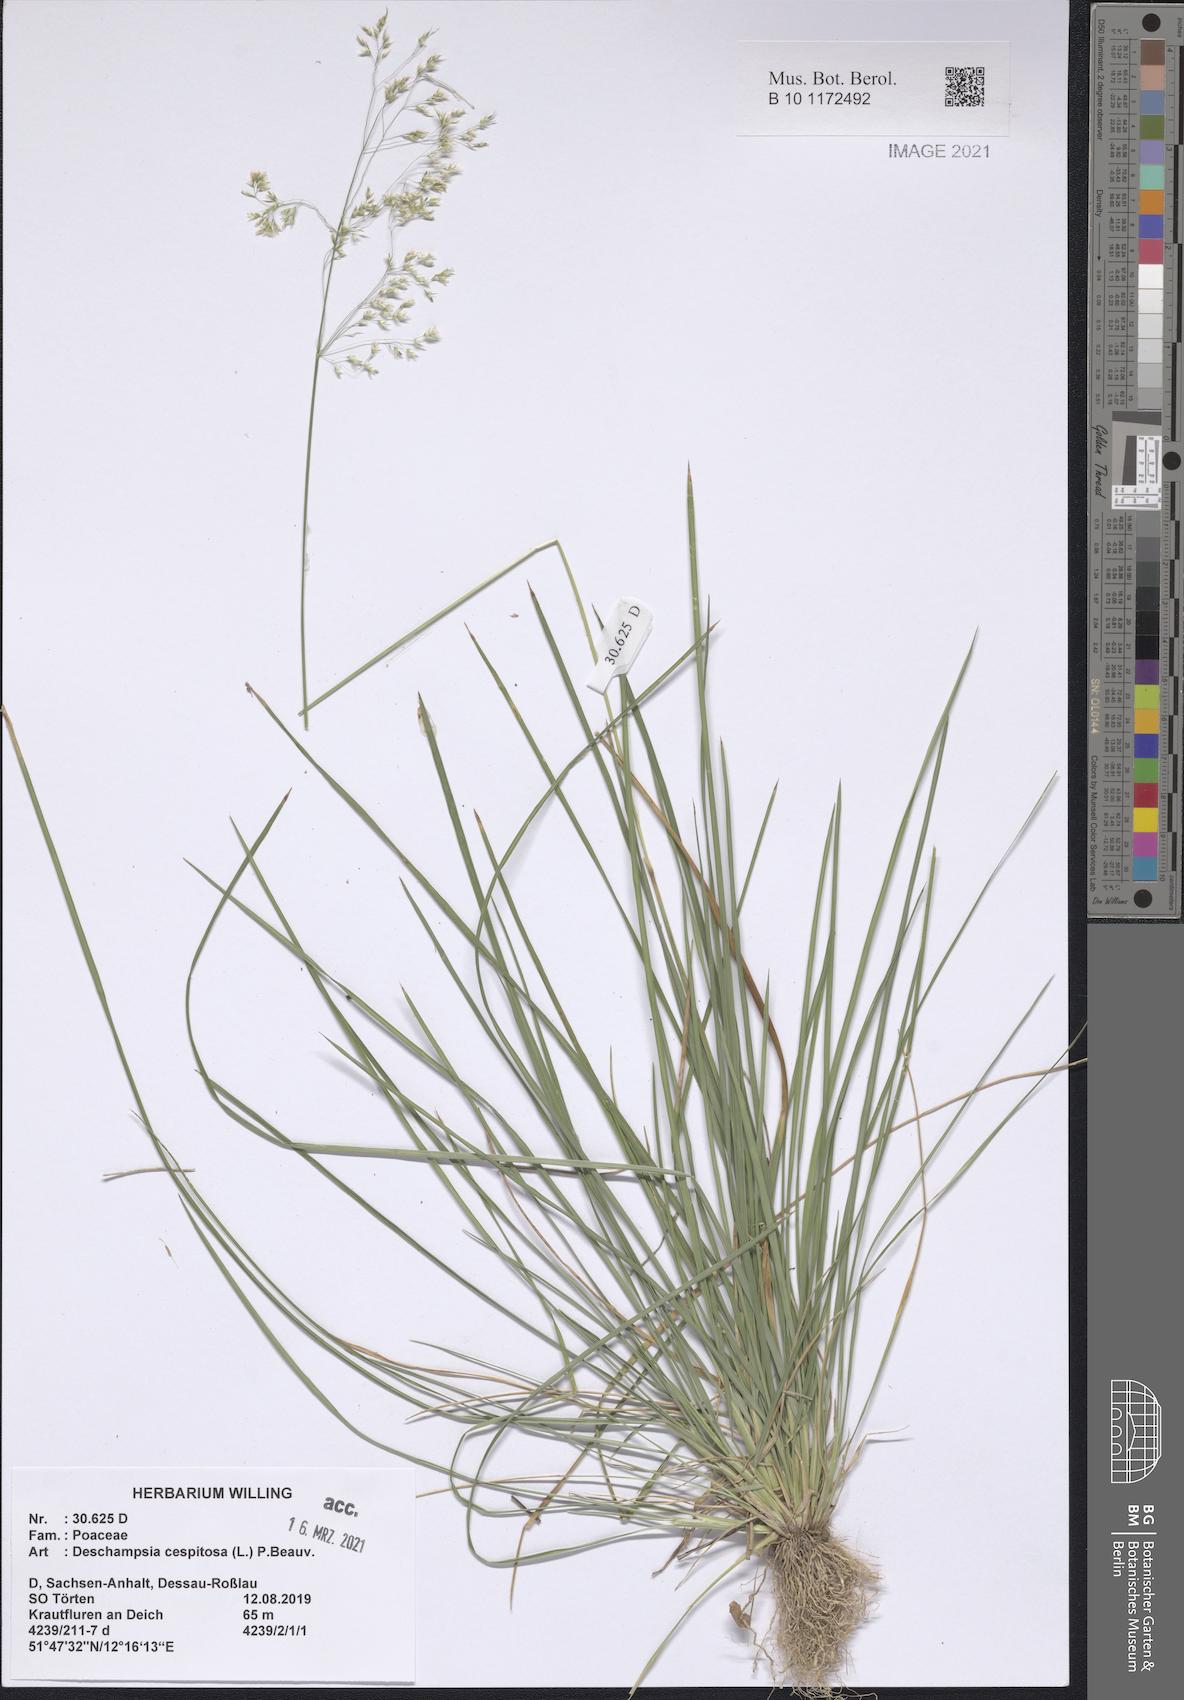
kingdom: Plantae
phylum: Tracheophyta
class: Liliopsida
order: Poales
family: Poaceae
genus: Deschampsia
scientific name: Deschampsia cespitosa
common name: Tufted hair-grass
